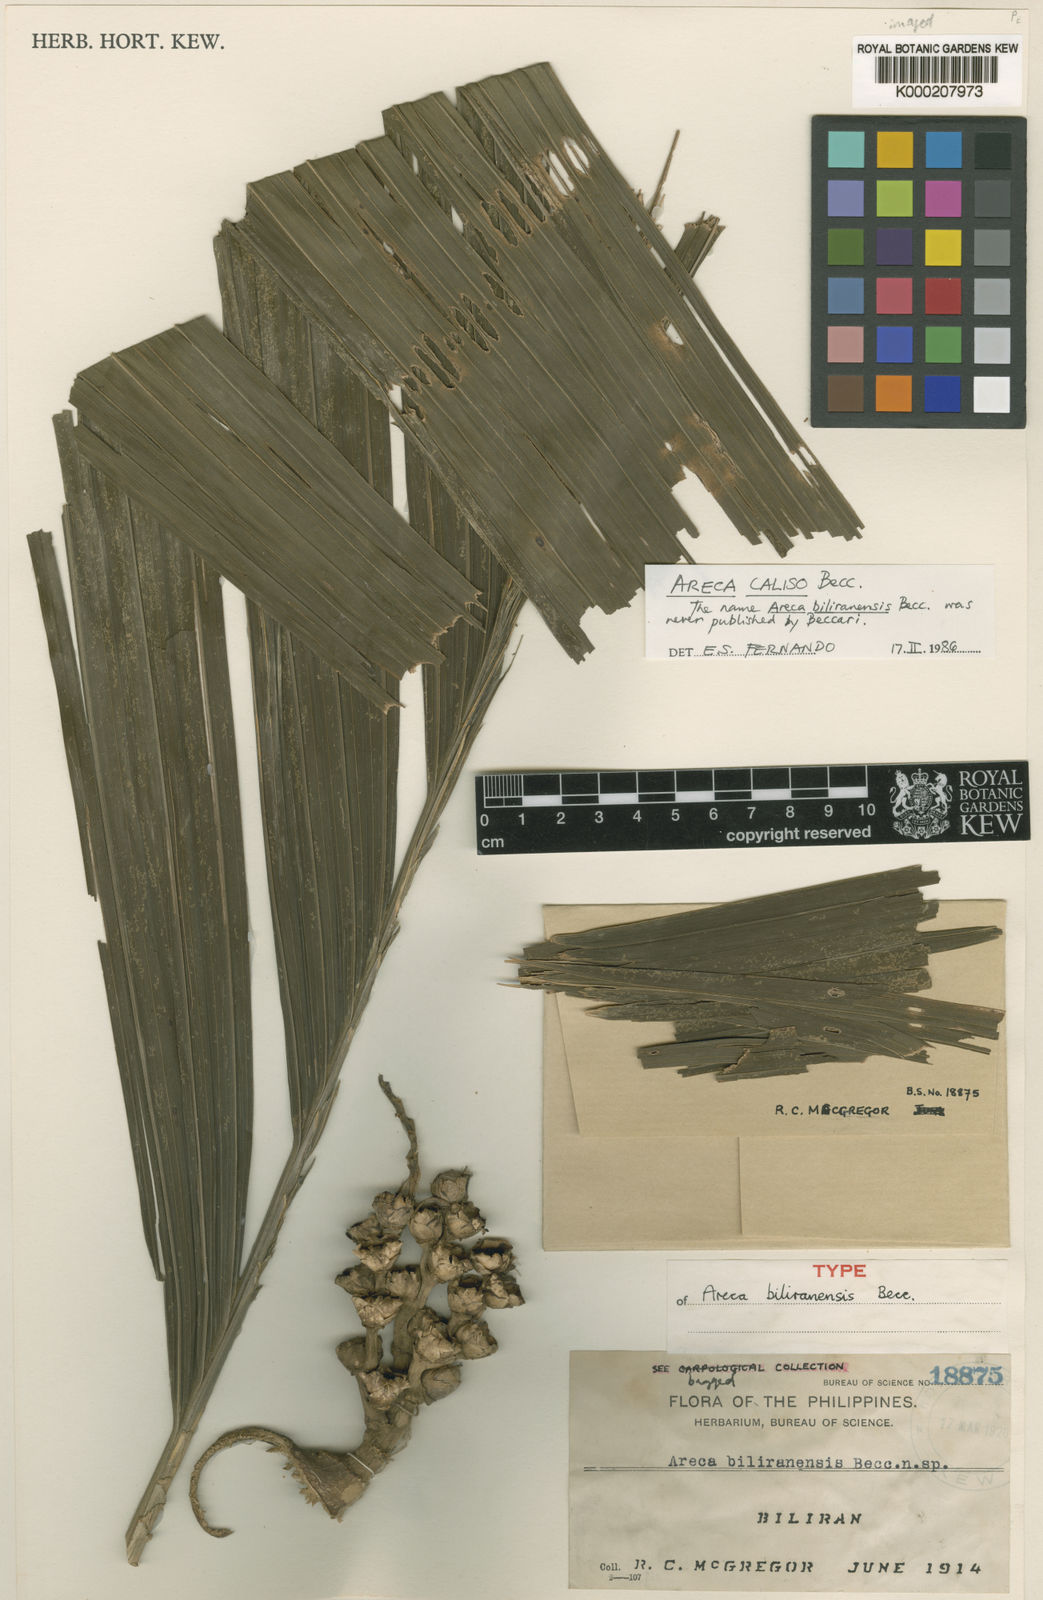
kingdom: Plantae
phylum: Tracheophyta
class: Liliopsida
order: Arecales
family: Arecaceae
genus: Areca
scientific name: Areca
